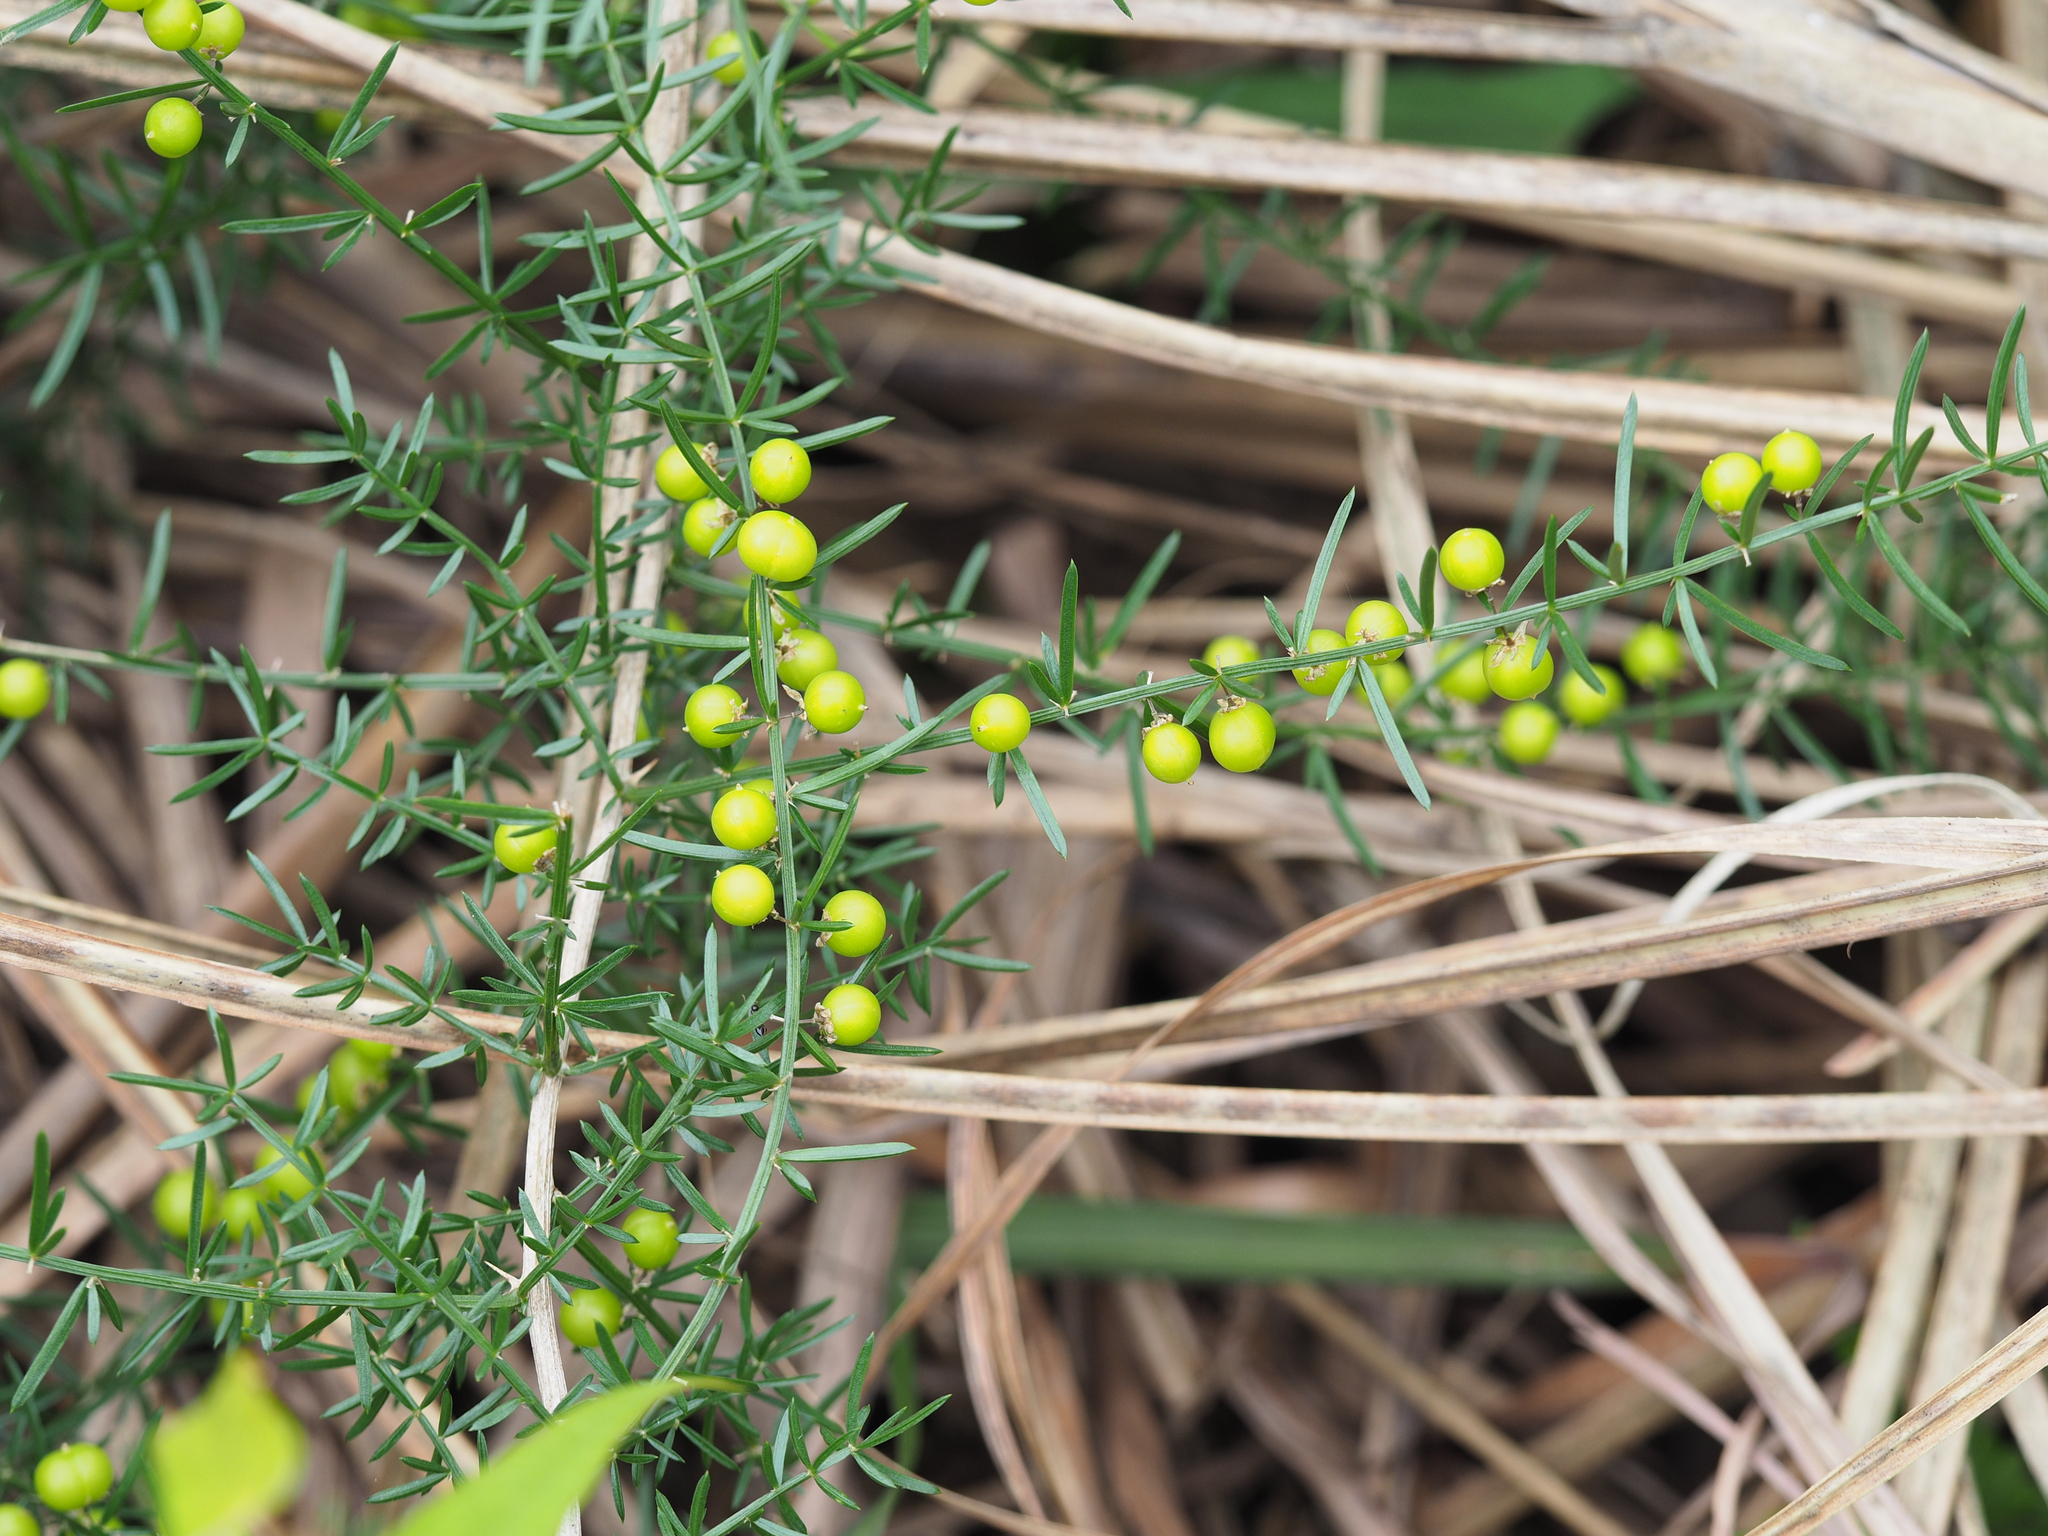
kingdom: Plantae
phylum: Tracheophyta
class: Liliopsida
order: Asparagales
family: Asparagaceae
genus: Asparagus
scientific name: Asparagus cochinchinensis
